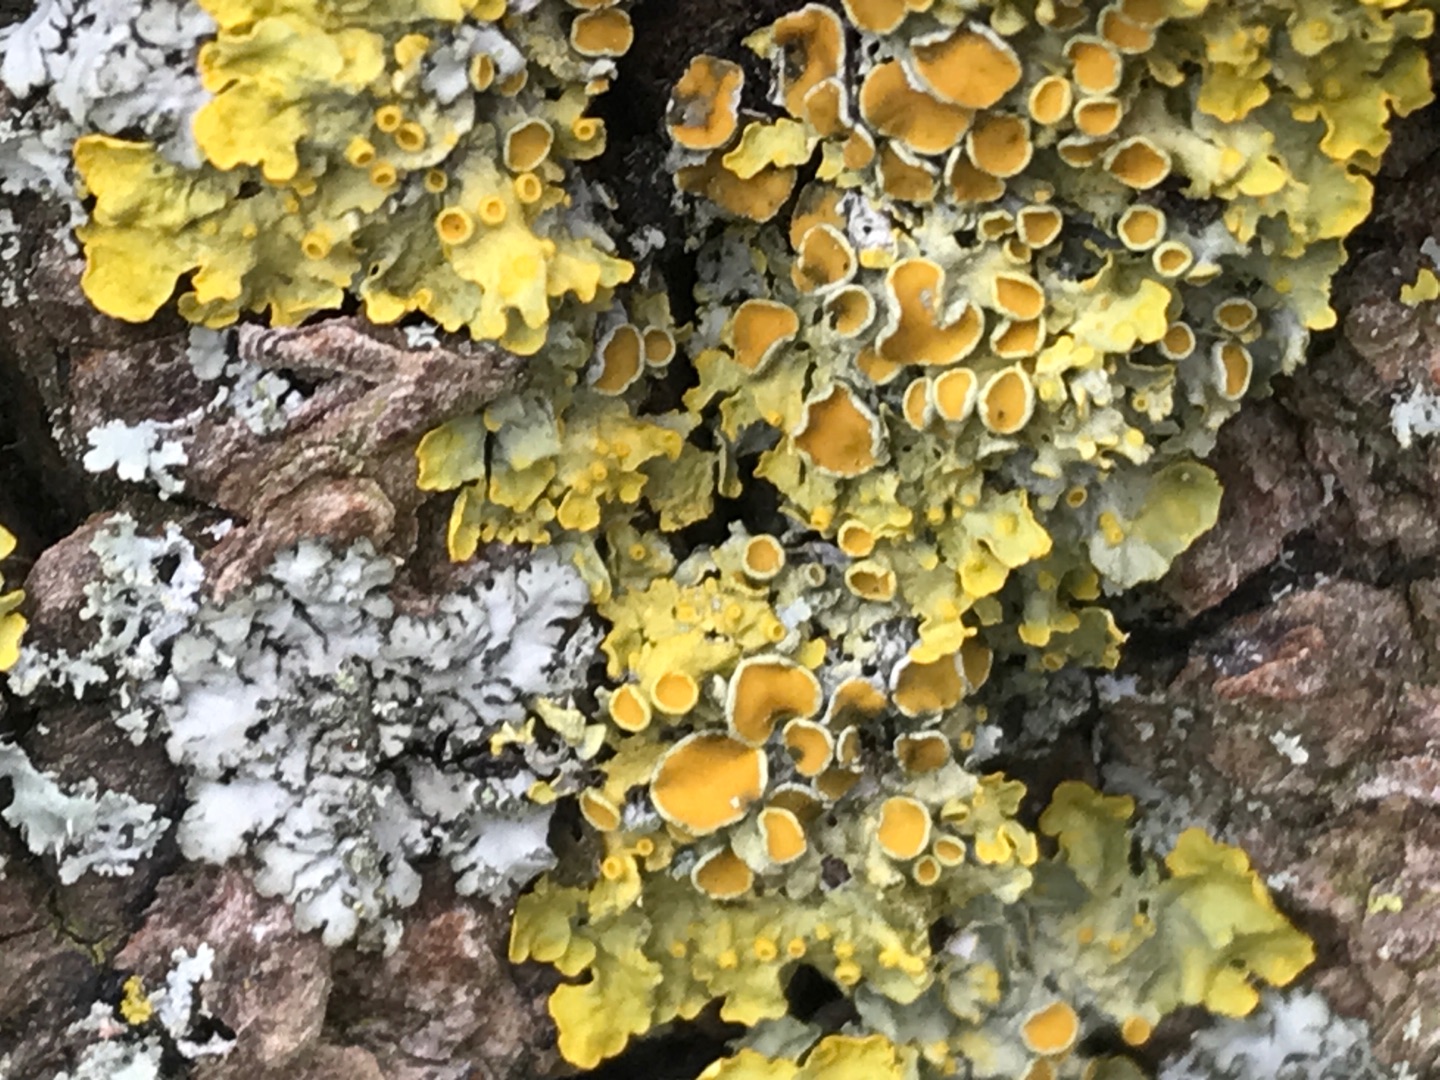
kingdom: Fungi
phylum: Ascomycota
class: Lecanoromycetes
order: Teloschistales
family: Teloschistaceae
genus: Xanthoria
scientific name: Xanthoria parietina
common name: Almindelig væggelav
